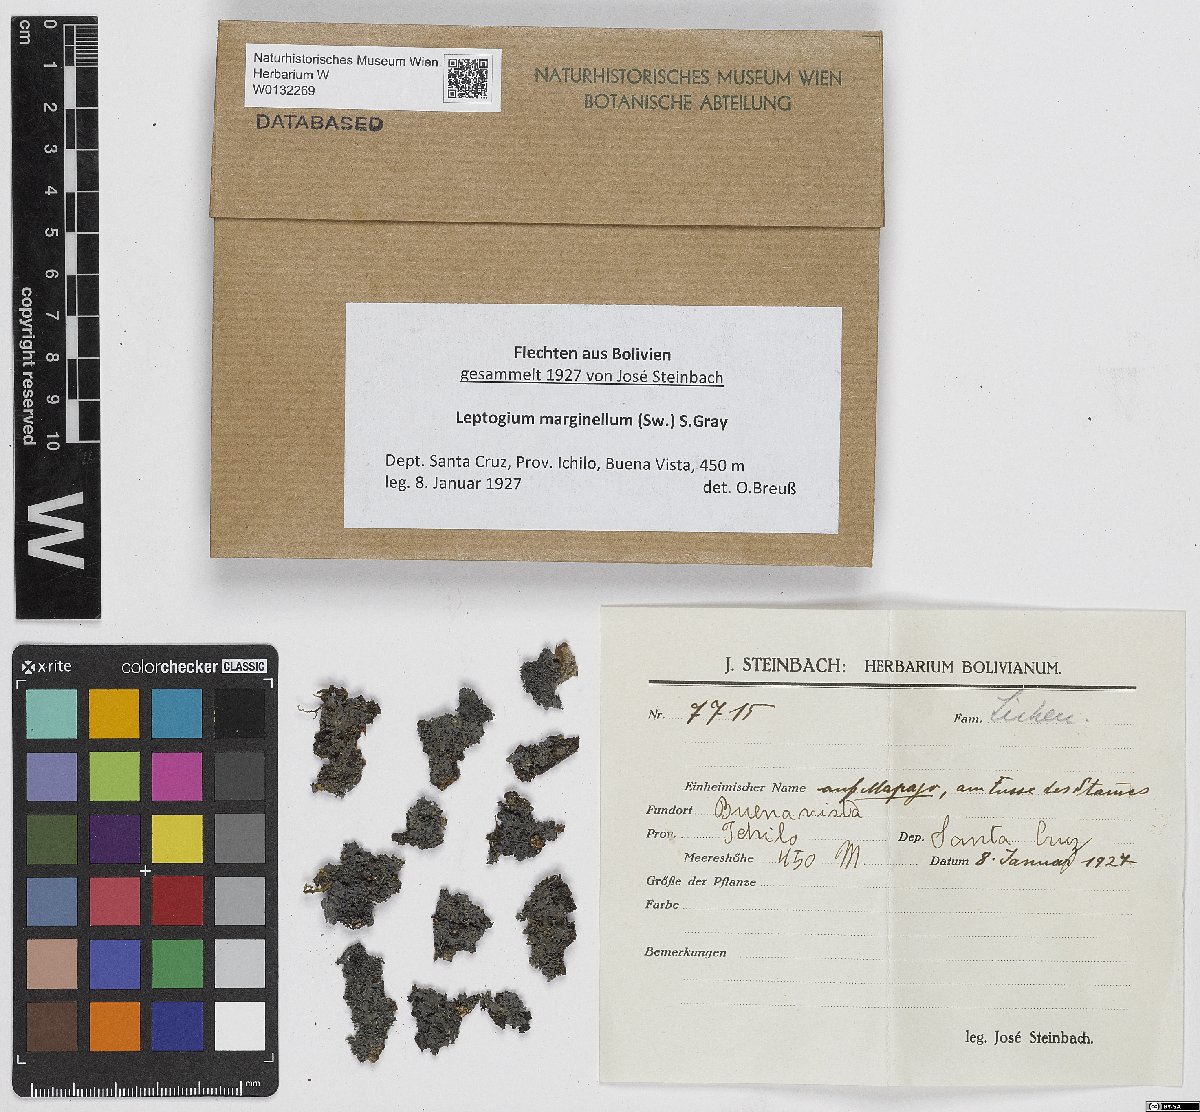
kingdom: Fungi
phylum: Ascomycota
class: Lecanoromycetes
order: Peltigerales
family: Collemataceae
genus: Leptogium
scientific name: Leptogium marginellum
